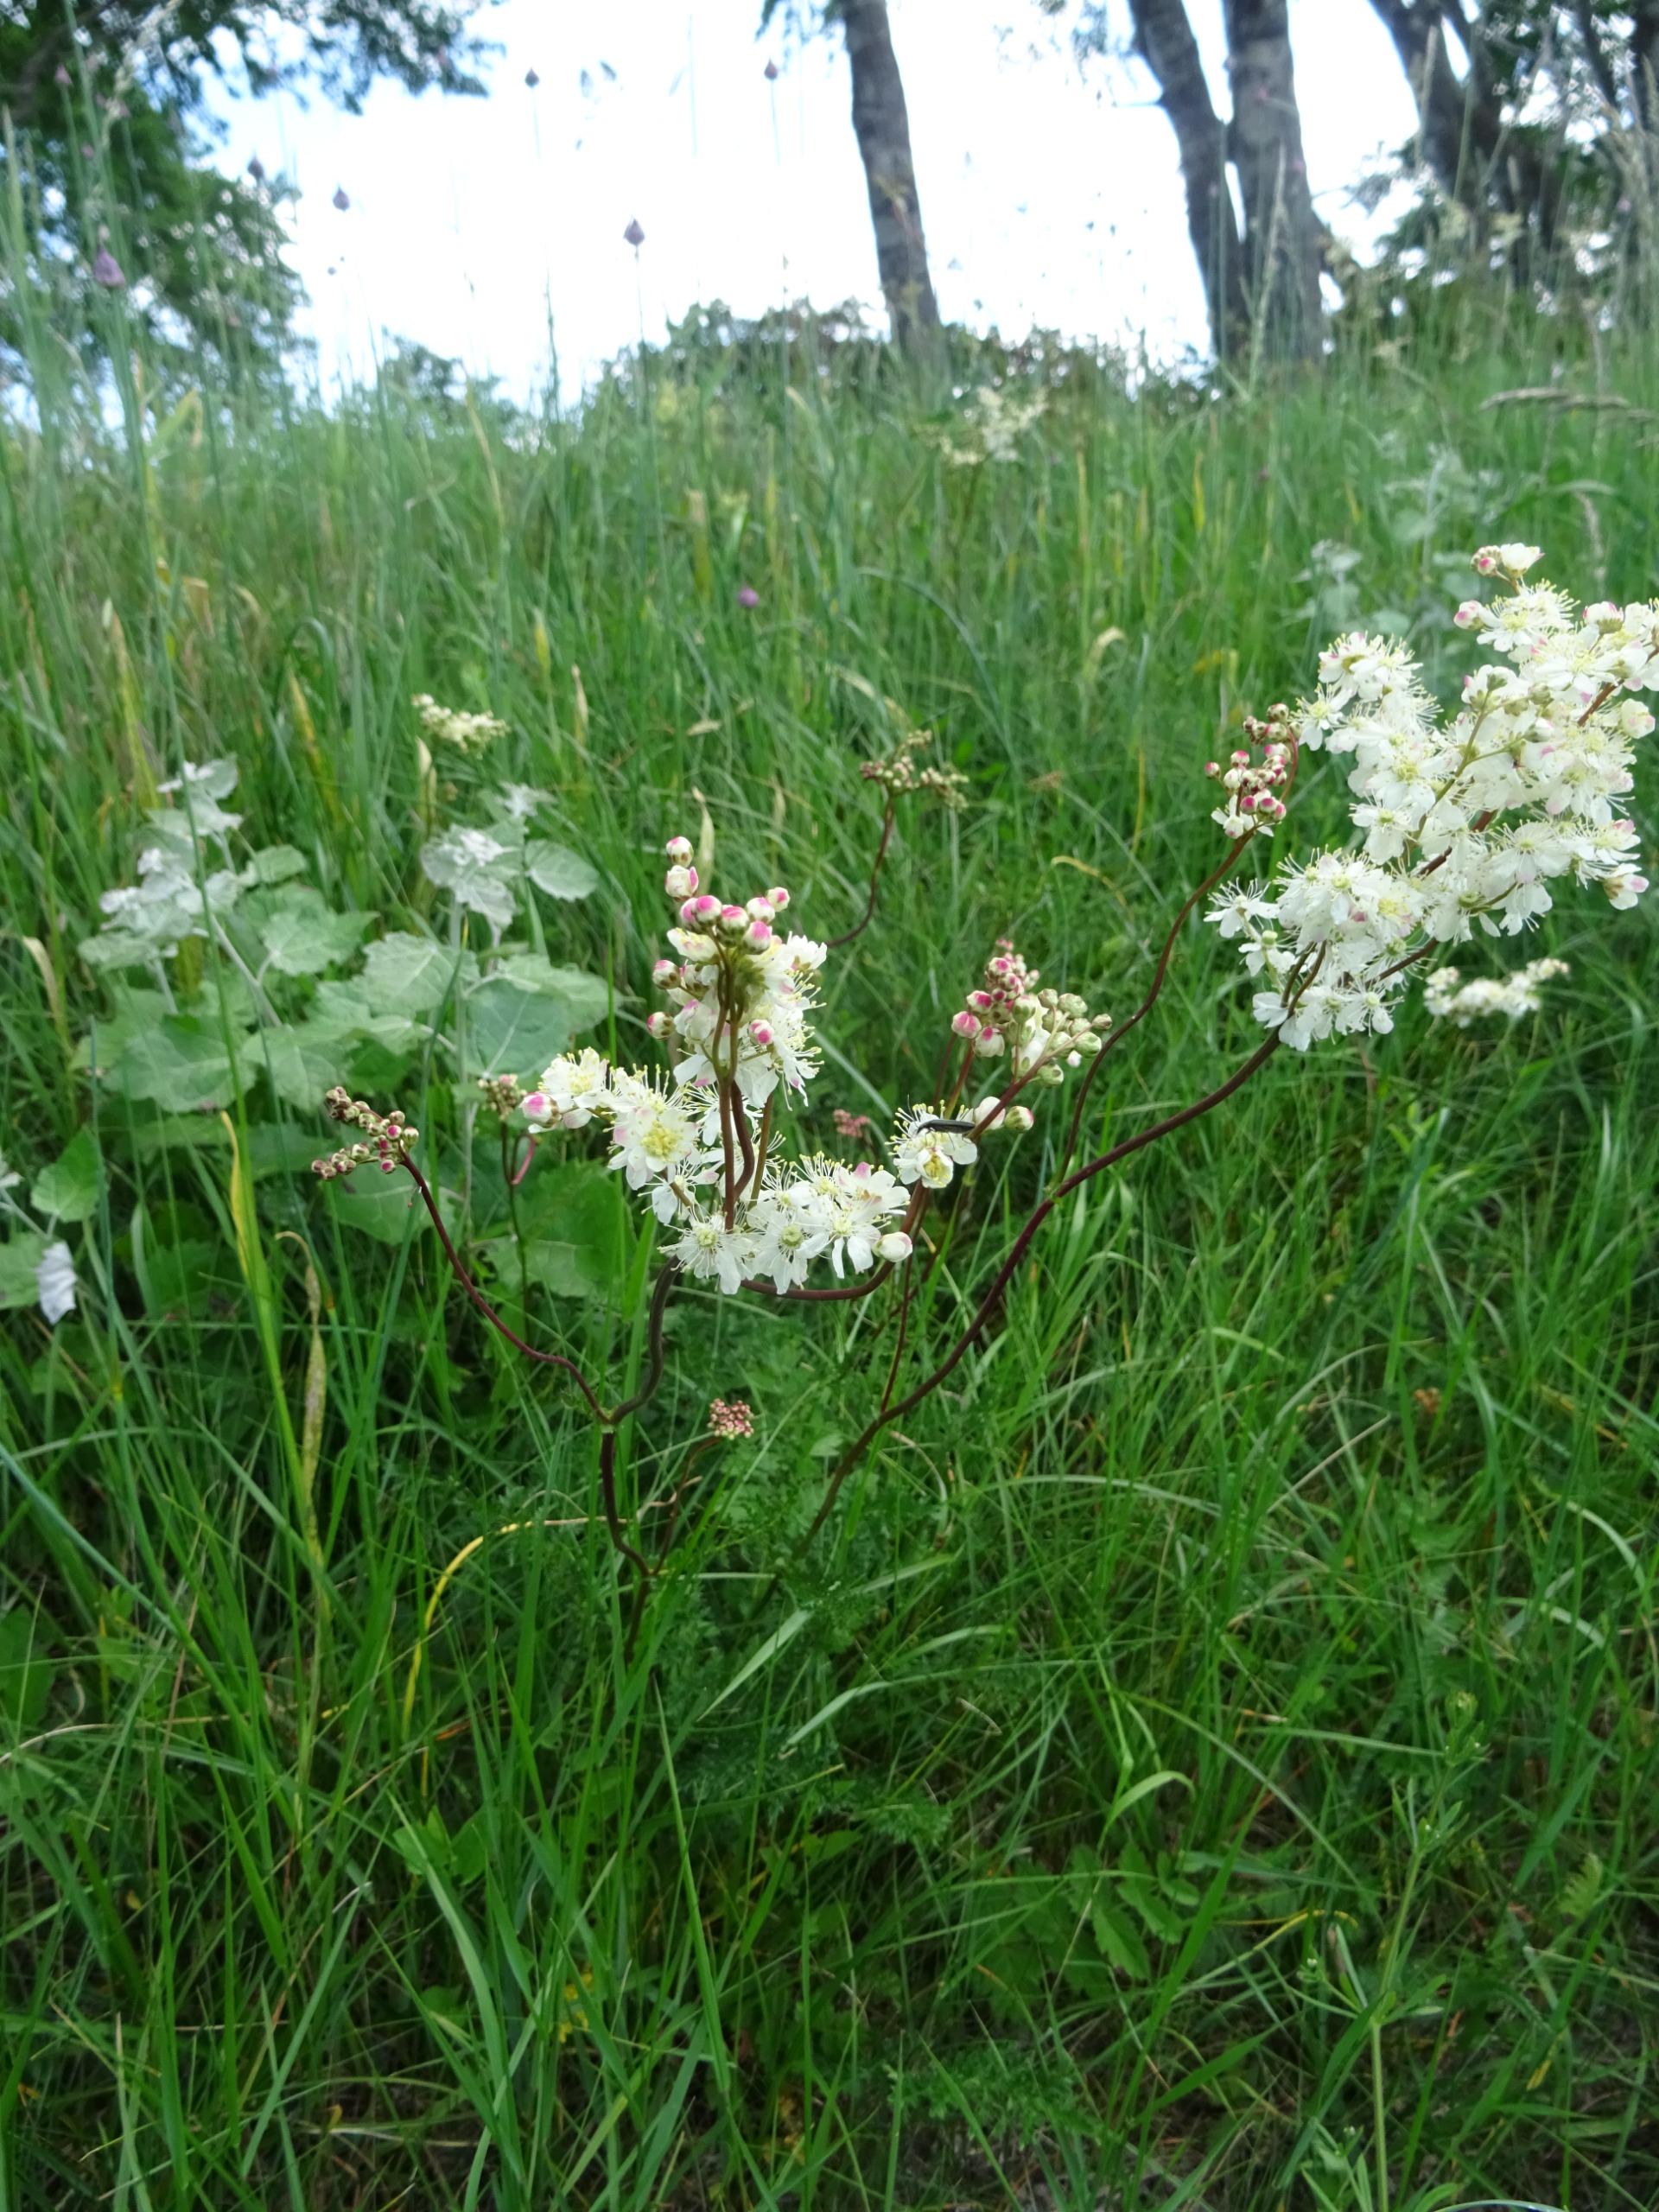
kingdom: Plantae
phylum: Tracheophyta
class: Magnoliopsida
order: Rosales
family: Rosaceae
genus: Filipendula
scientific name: Filipendula vulgaris
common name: Knoldet mjødurt
